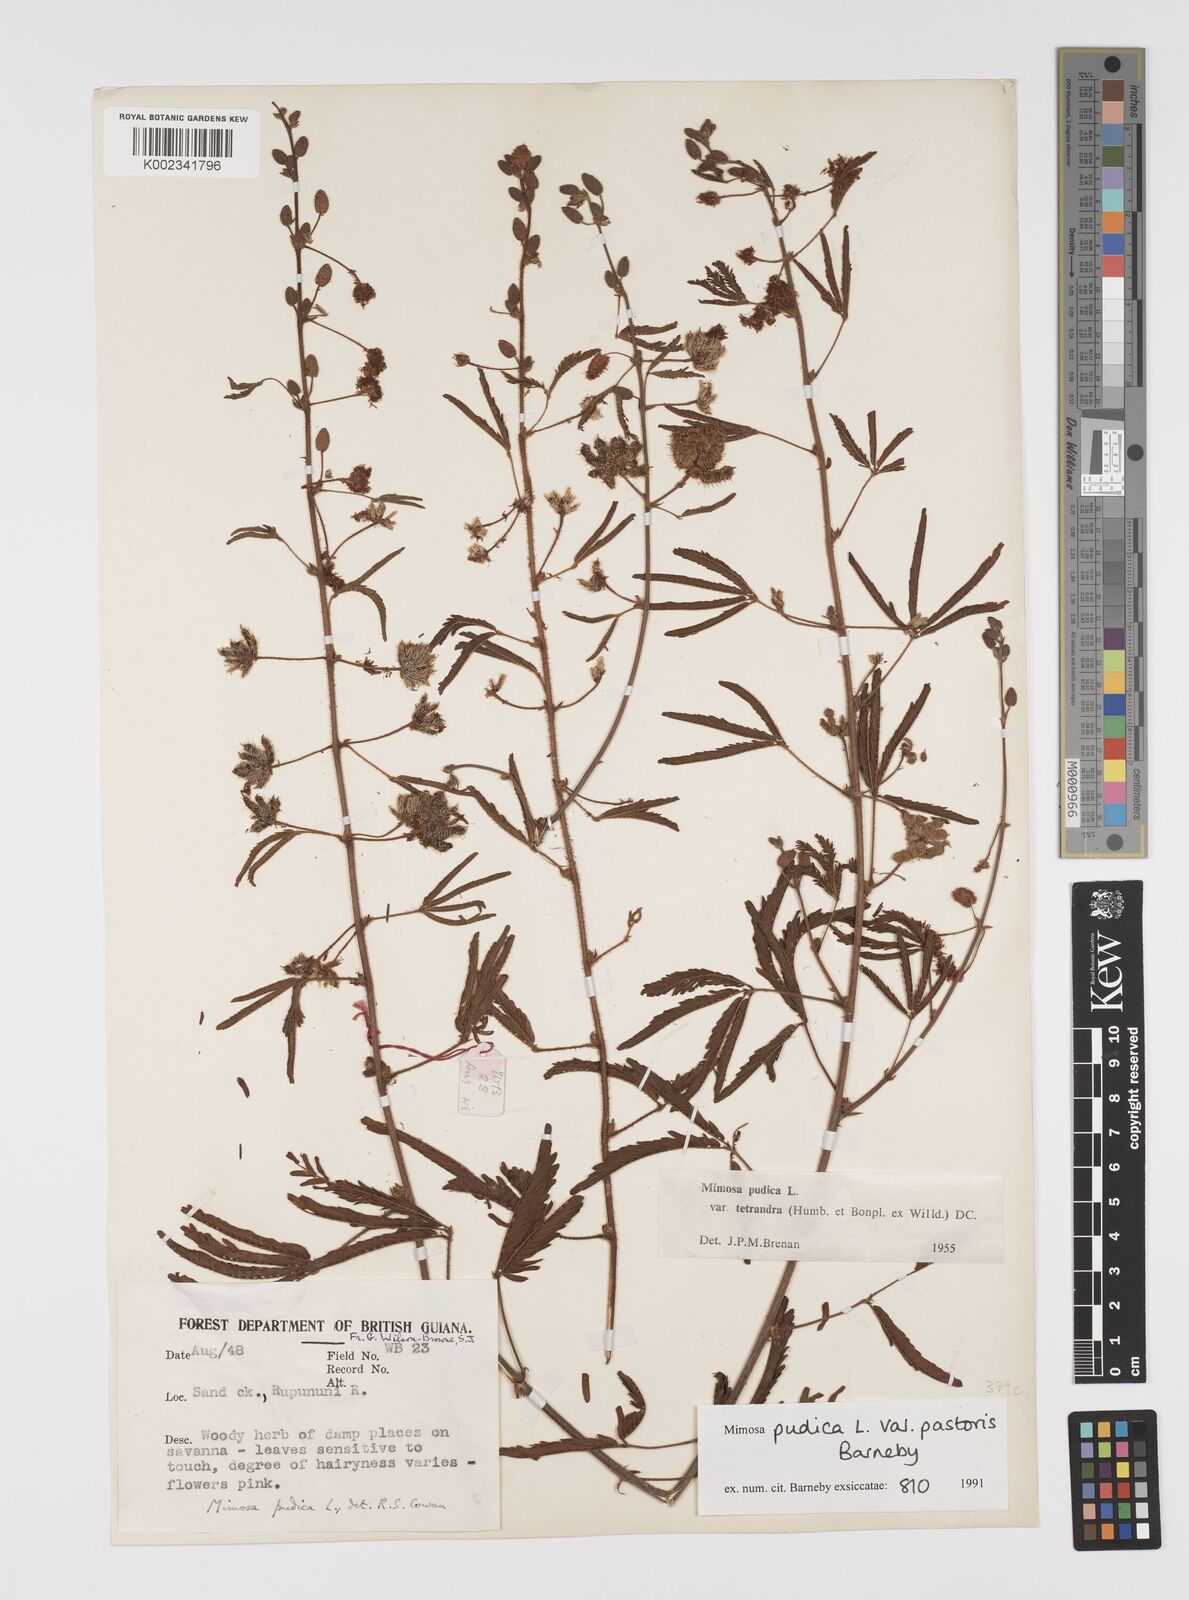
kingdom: Plantae
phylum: Tracheophyta
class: Magnoliopsida
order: Fabales
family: Fabaceae
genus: Mimosa
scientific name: Mimosa pudica
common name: Sensitive plant
